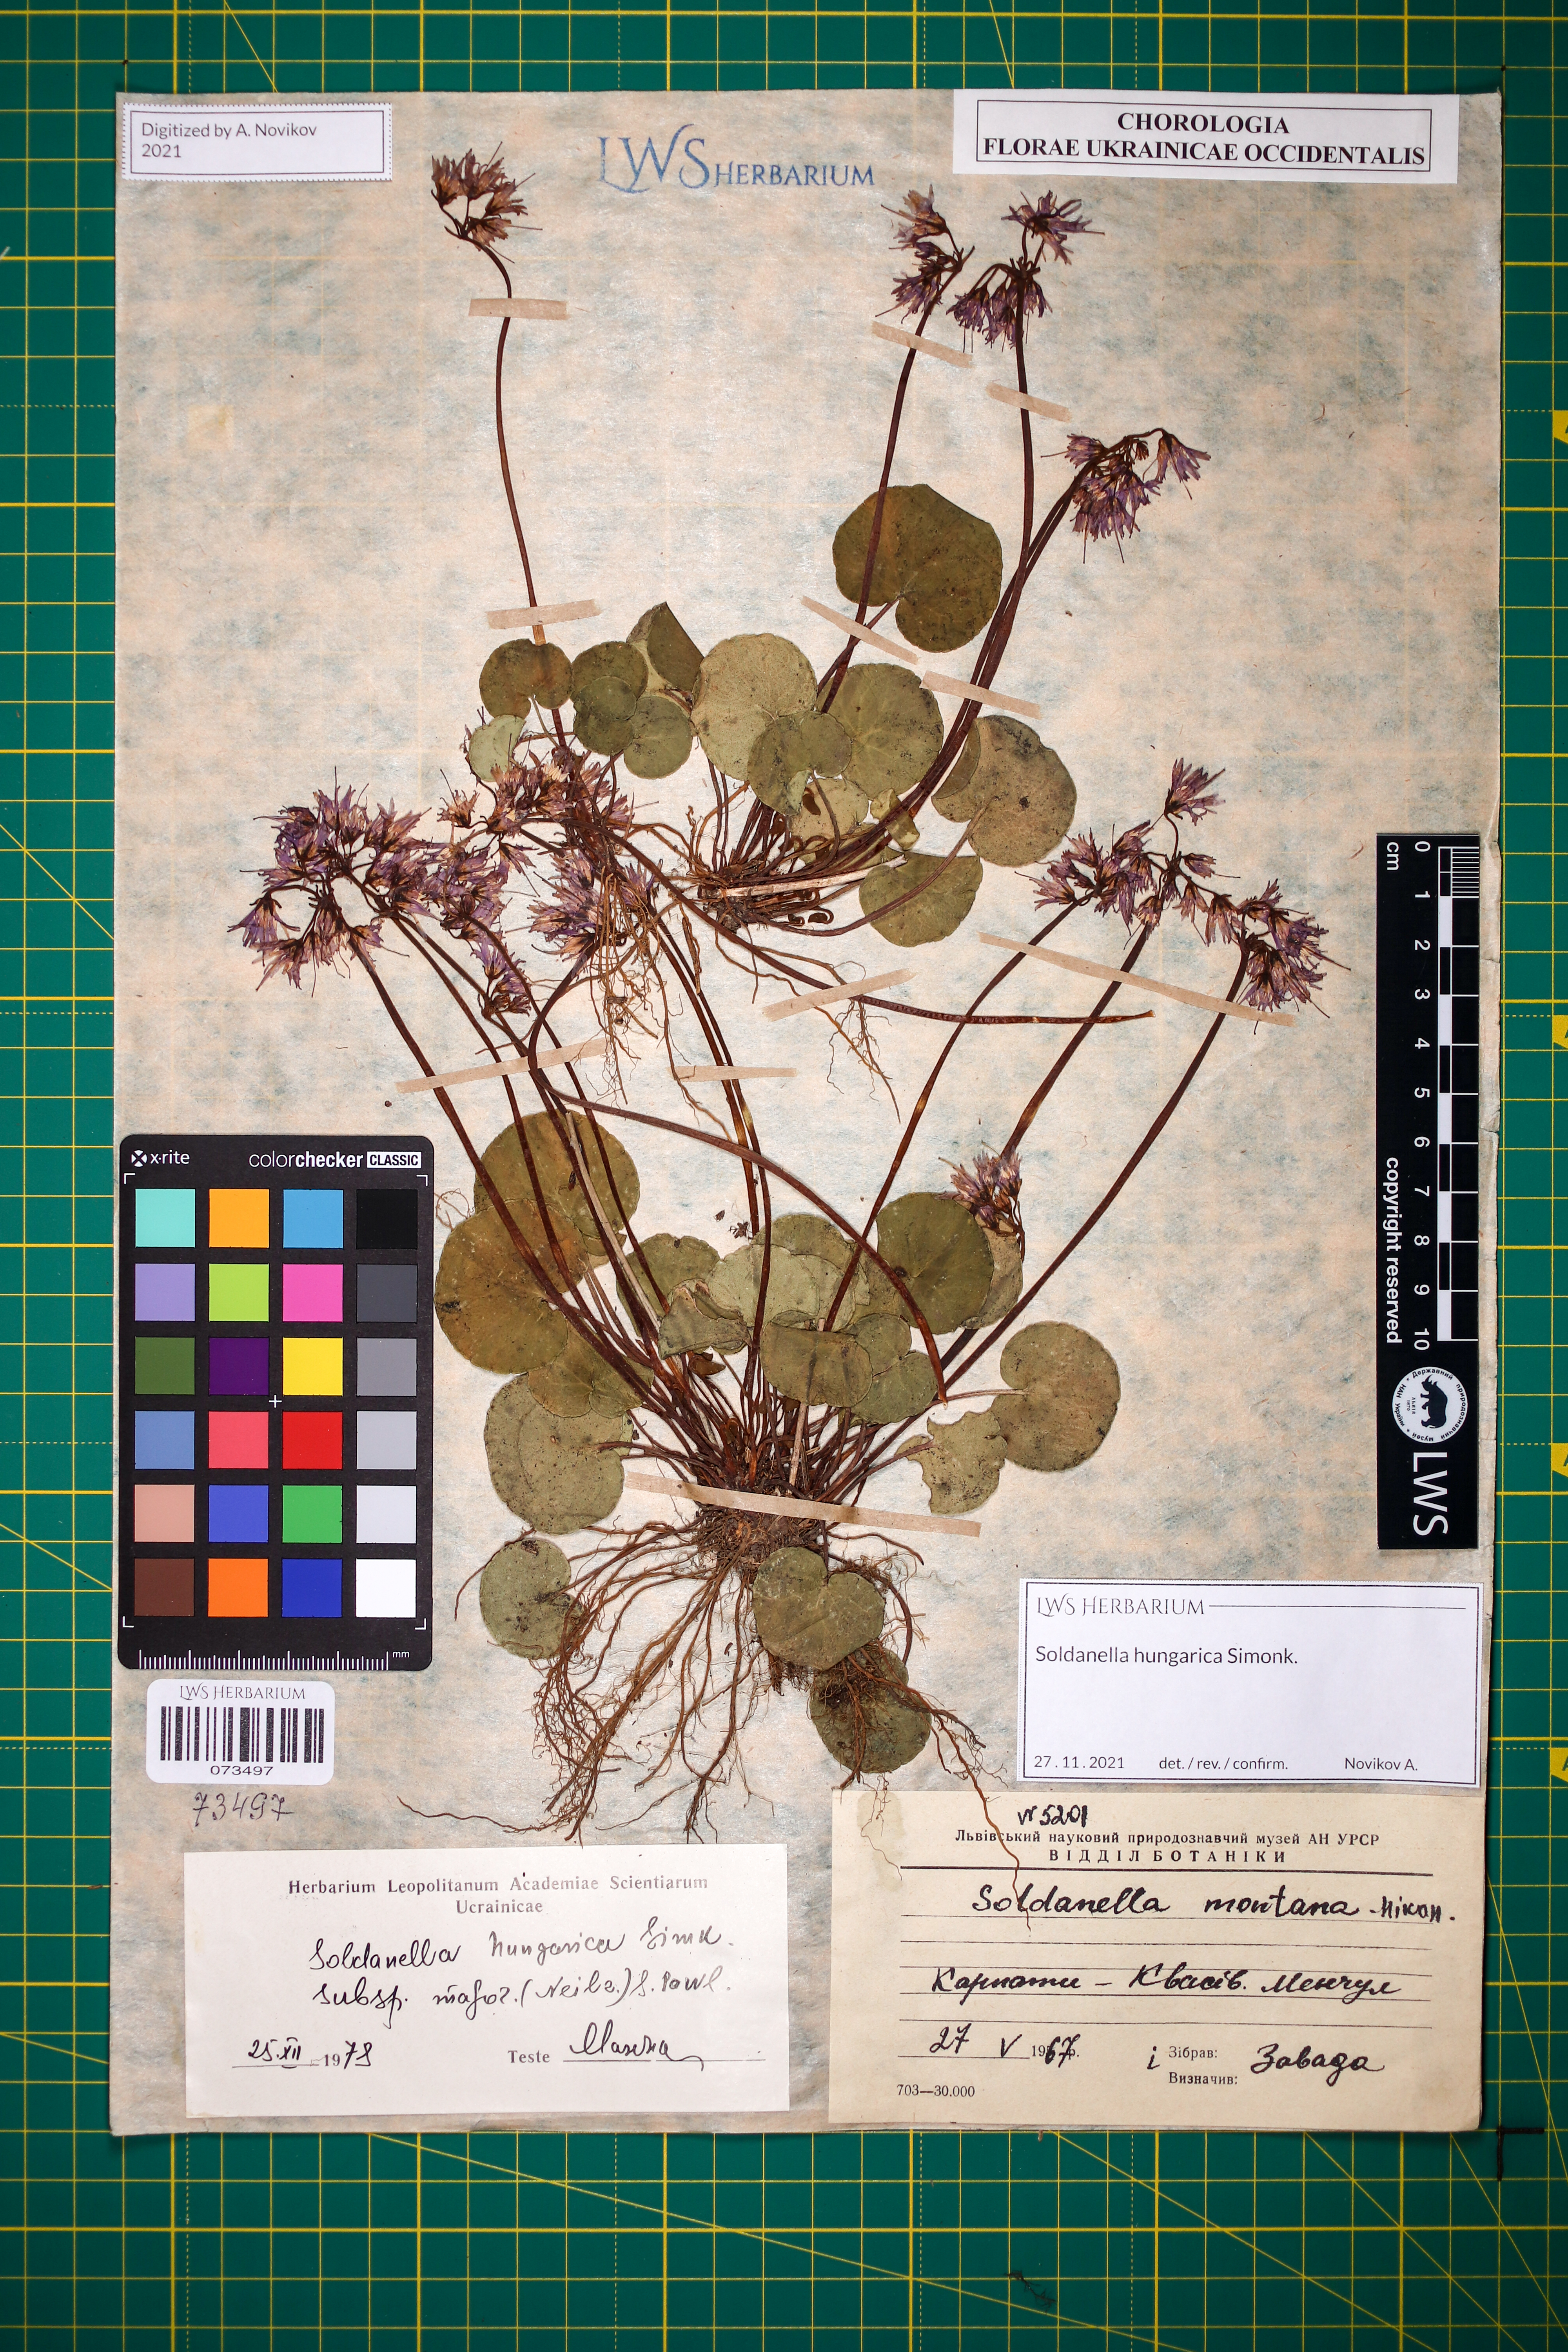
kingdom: Plantae
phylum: Tracheophyta
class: Magnoliopsida
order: Ericales
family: Primulaceae
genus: Soldanella
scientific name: Soldanella hungarica
